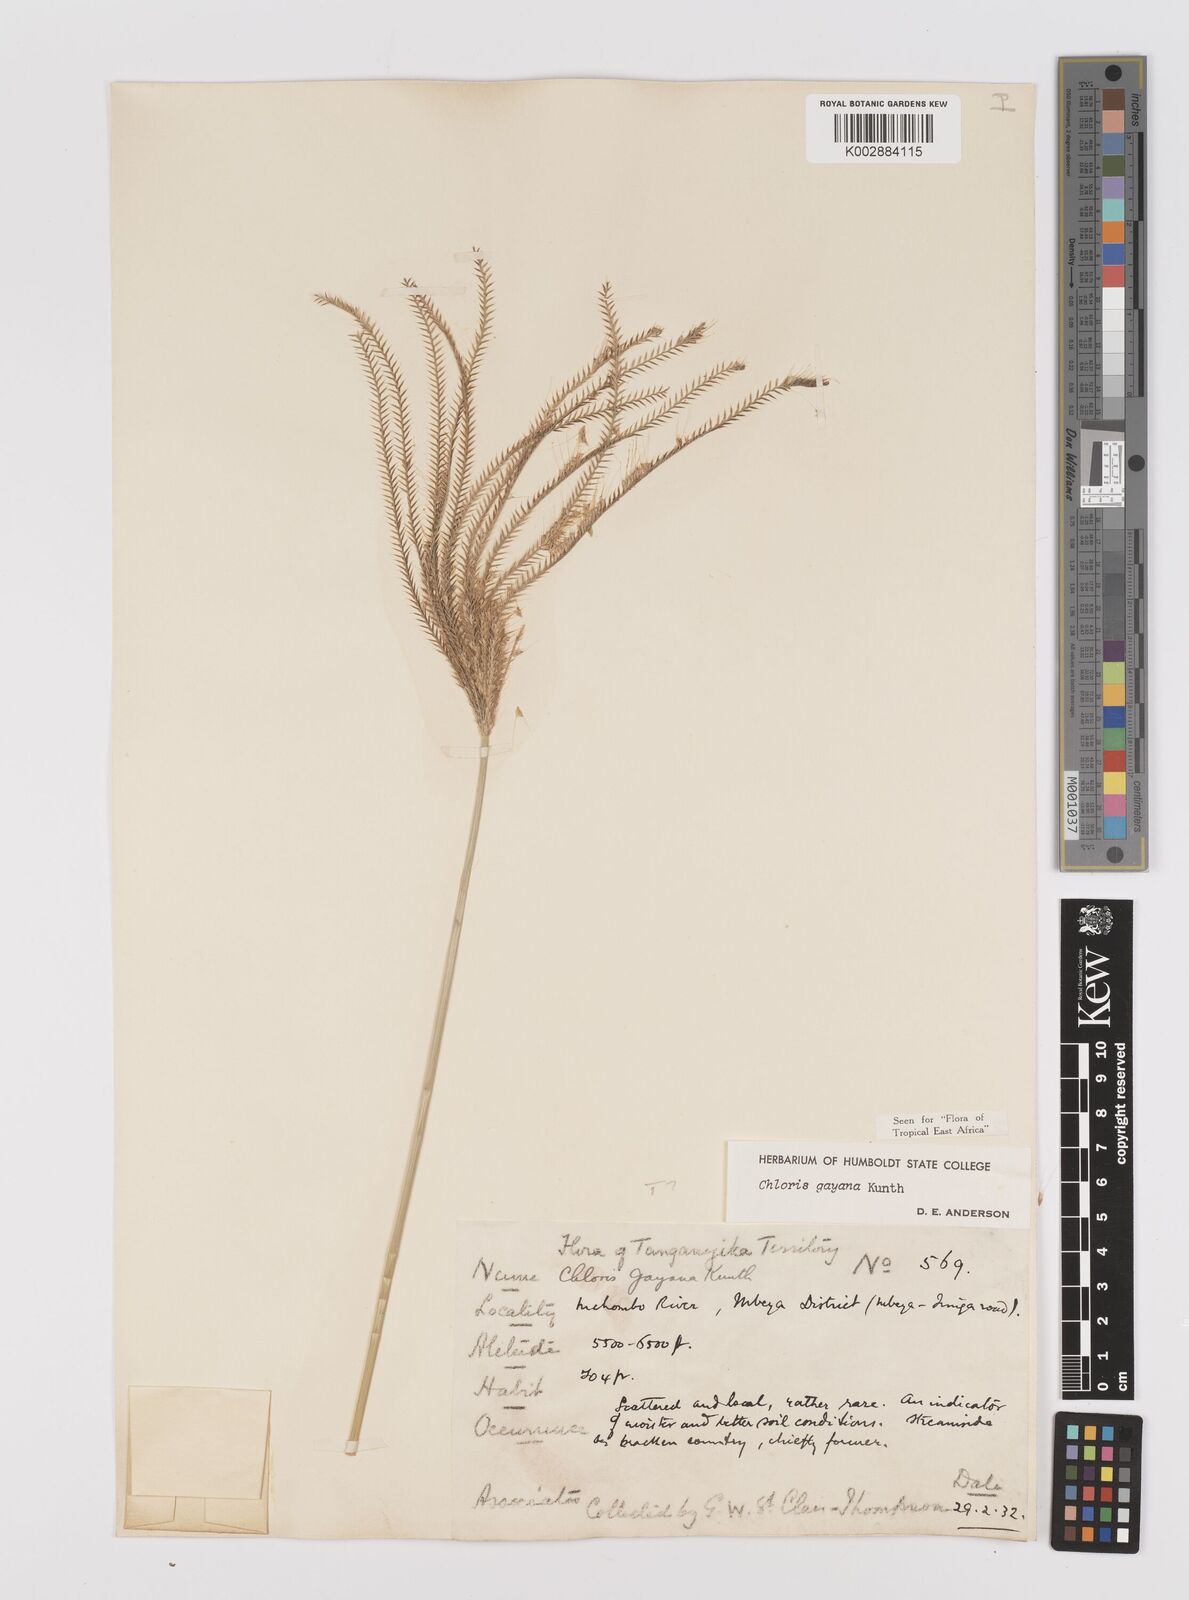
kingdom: Plantae
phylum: Tracheophyta
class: Liliopsida
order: Poales
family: Poaceae
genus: Chloris
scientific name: Chloris gayana
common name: Rhodes grass
